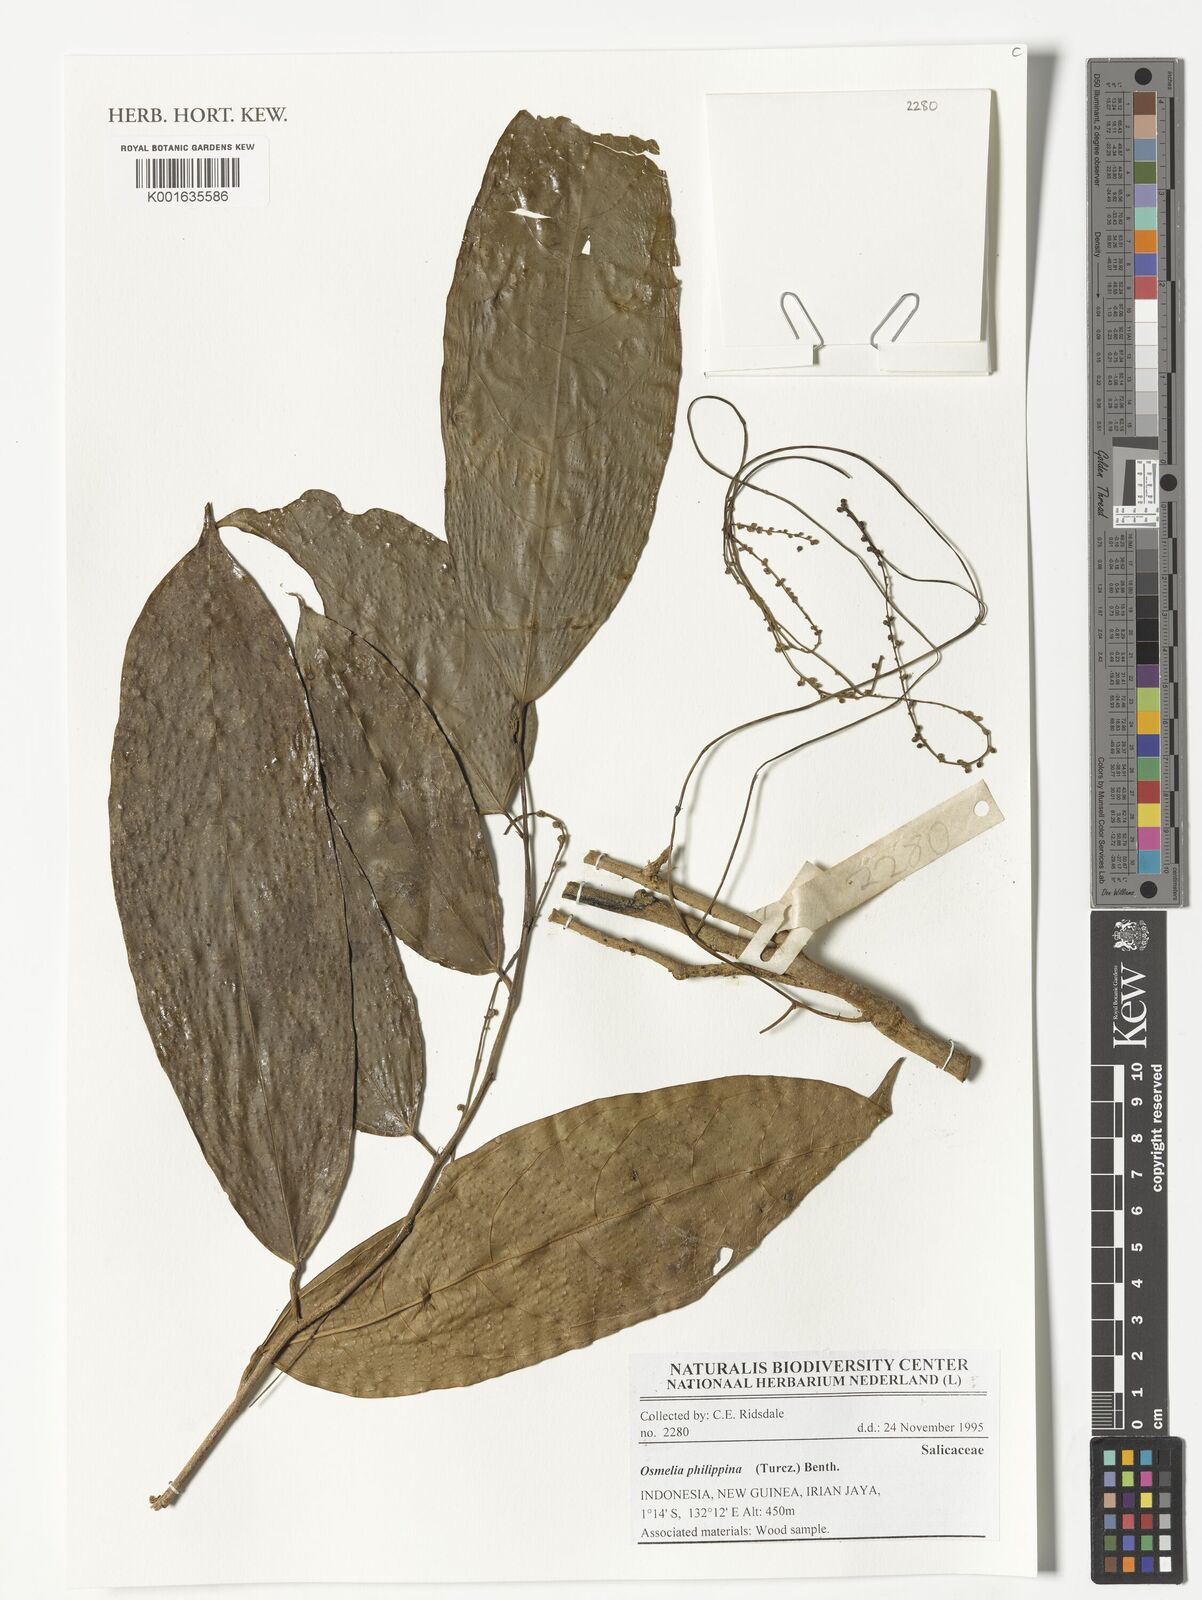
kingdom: Plantae
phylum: Tracheophyta
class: Magnoliopsida
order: Malpighiales
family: Salicaceae
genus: Osmelia
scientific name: Osmelia philippina
